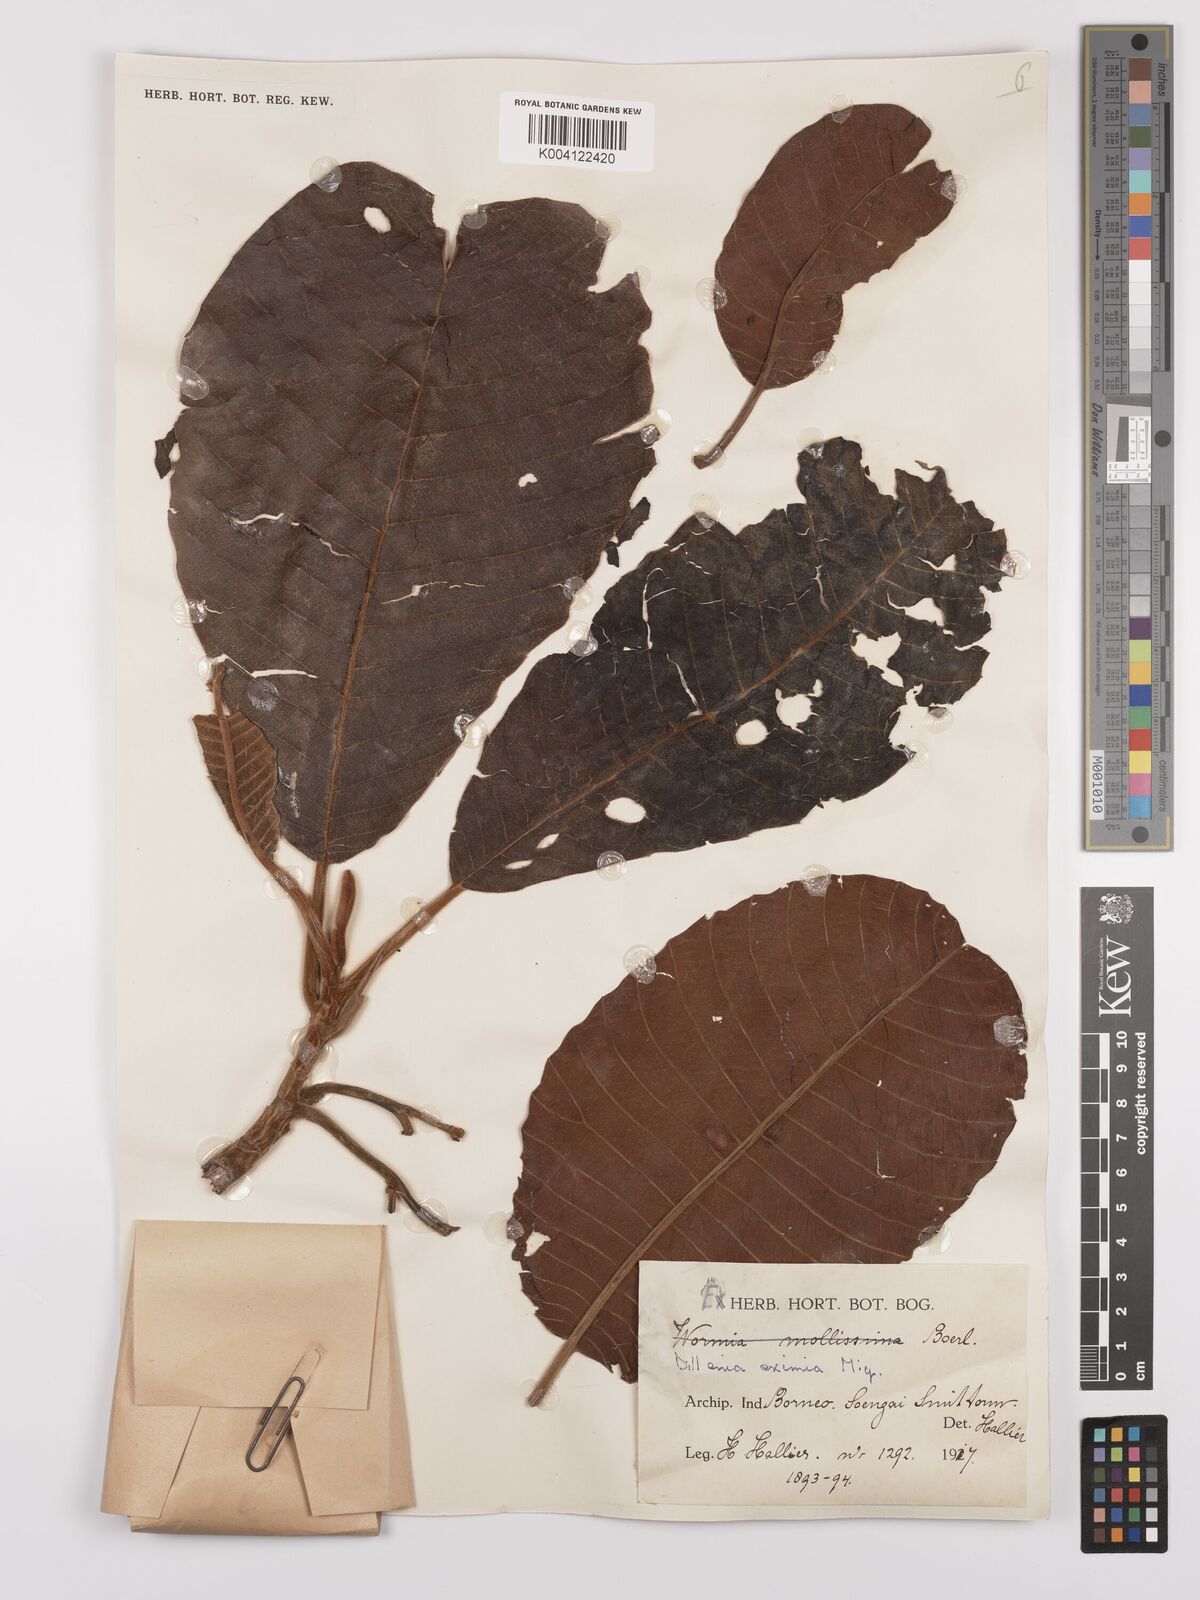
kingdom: Plantae
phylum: Tracheophyta
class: Magnoliopsida
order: Dilleniales
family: Dilleniaceae
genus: Dillenia
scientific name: Dillenia grandifolia
